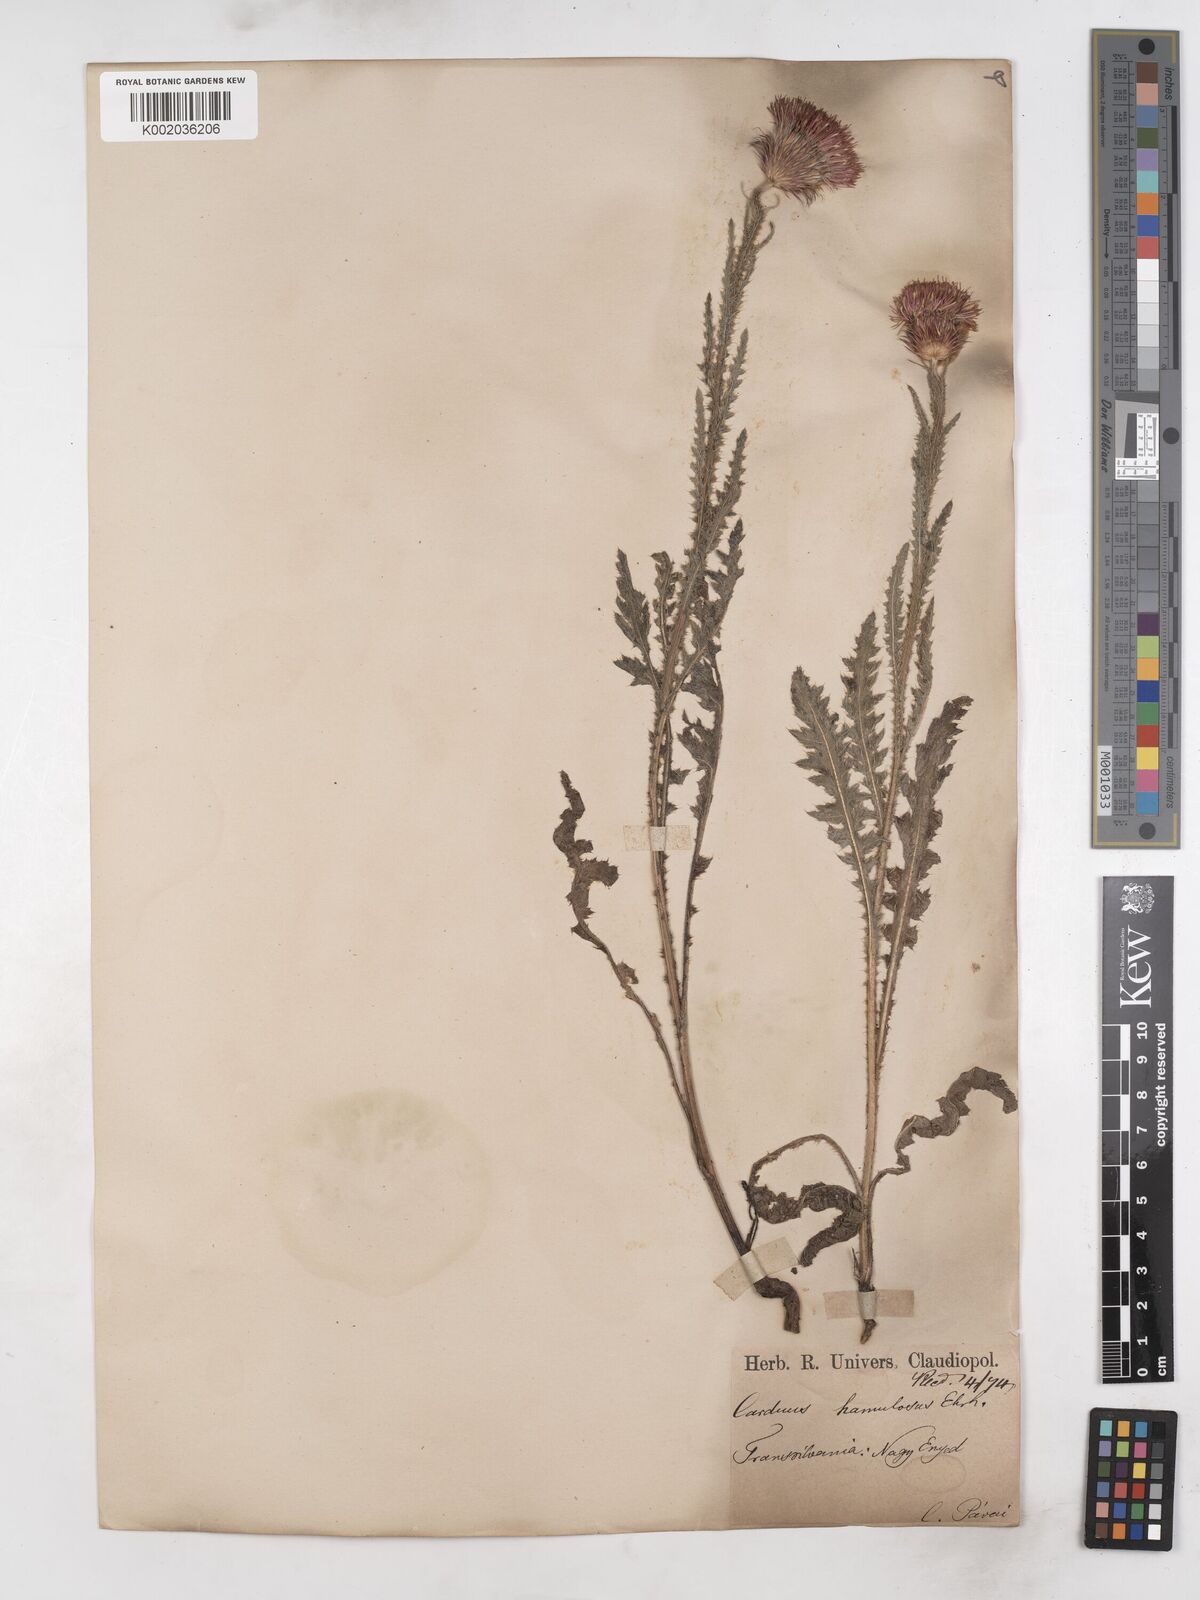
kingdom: Plantae
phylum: Tracheophyta
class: Magnoliopsida
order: Asterales
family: Asteraceae
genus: Carduus
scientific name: Carduus hamulosus
